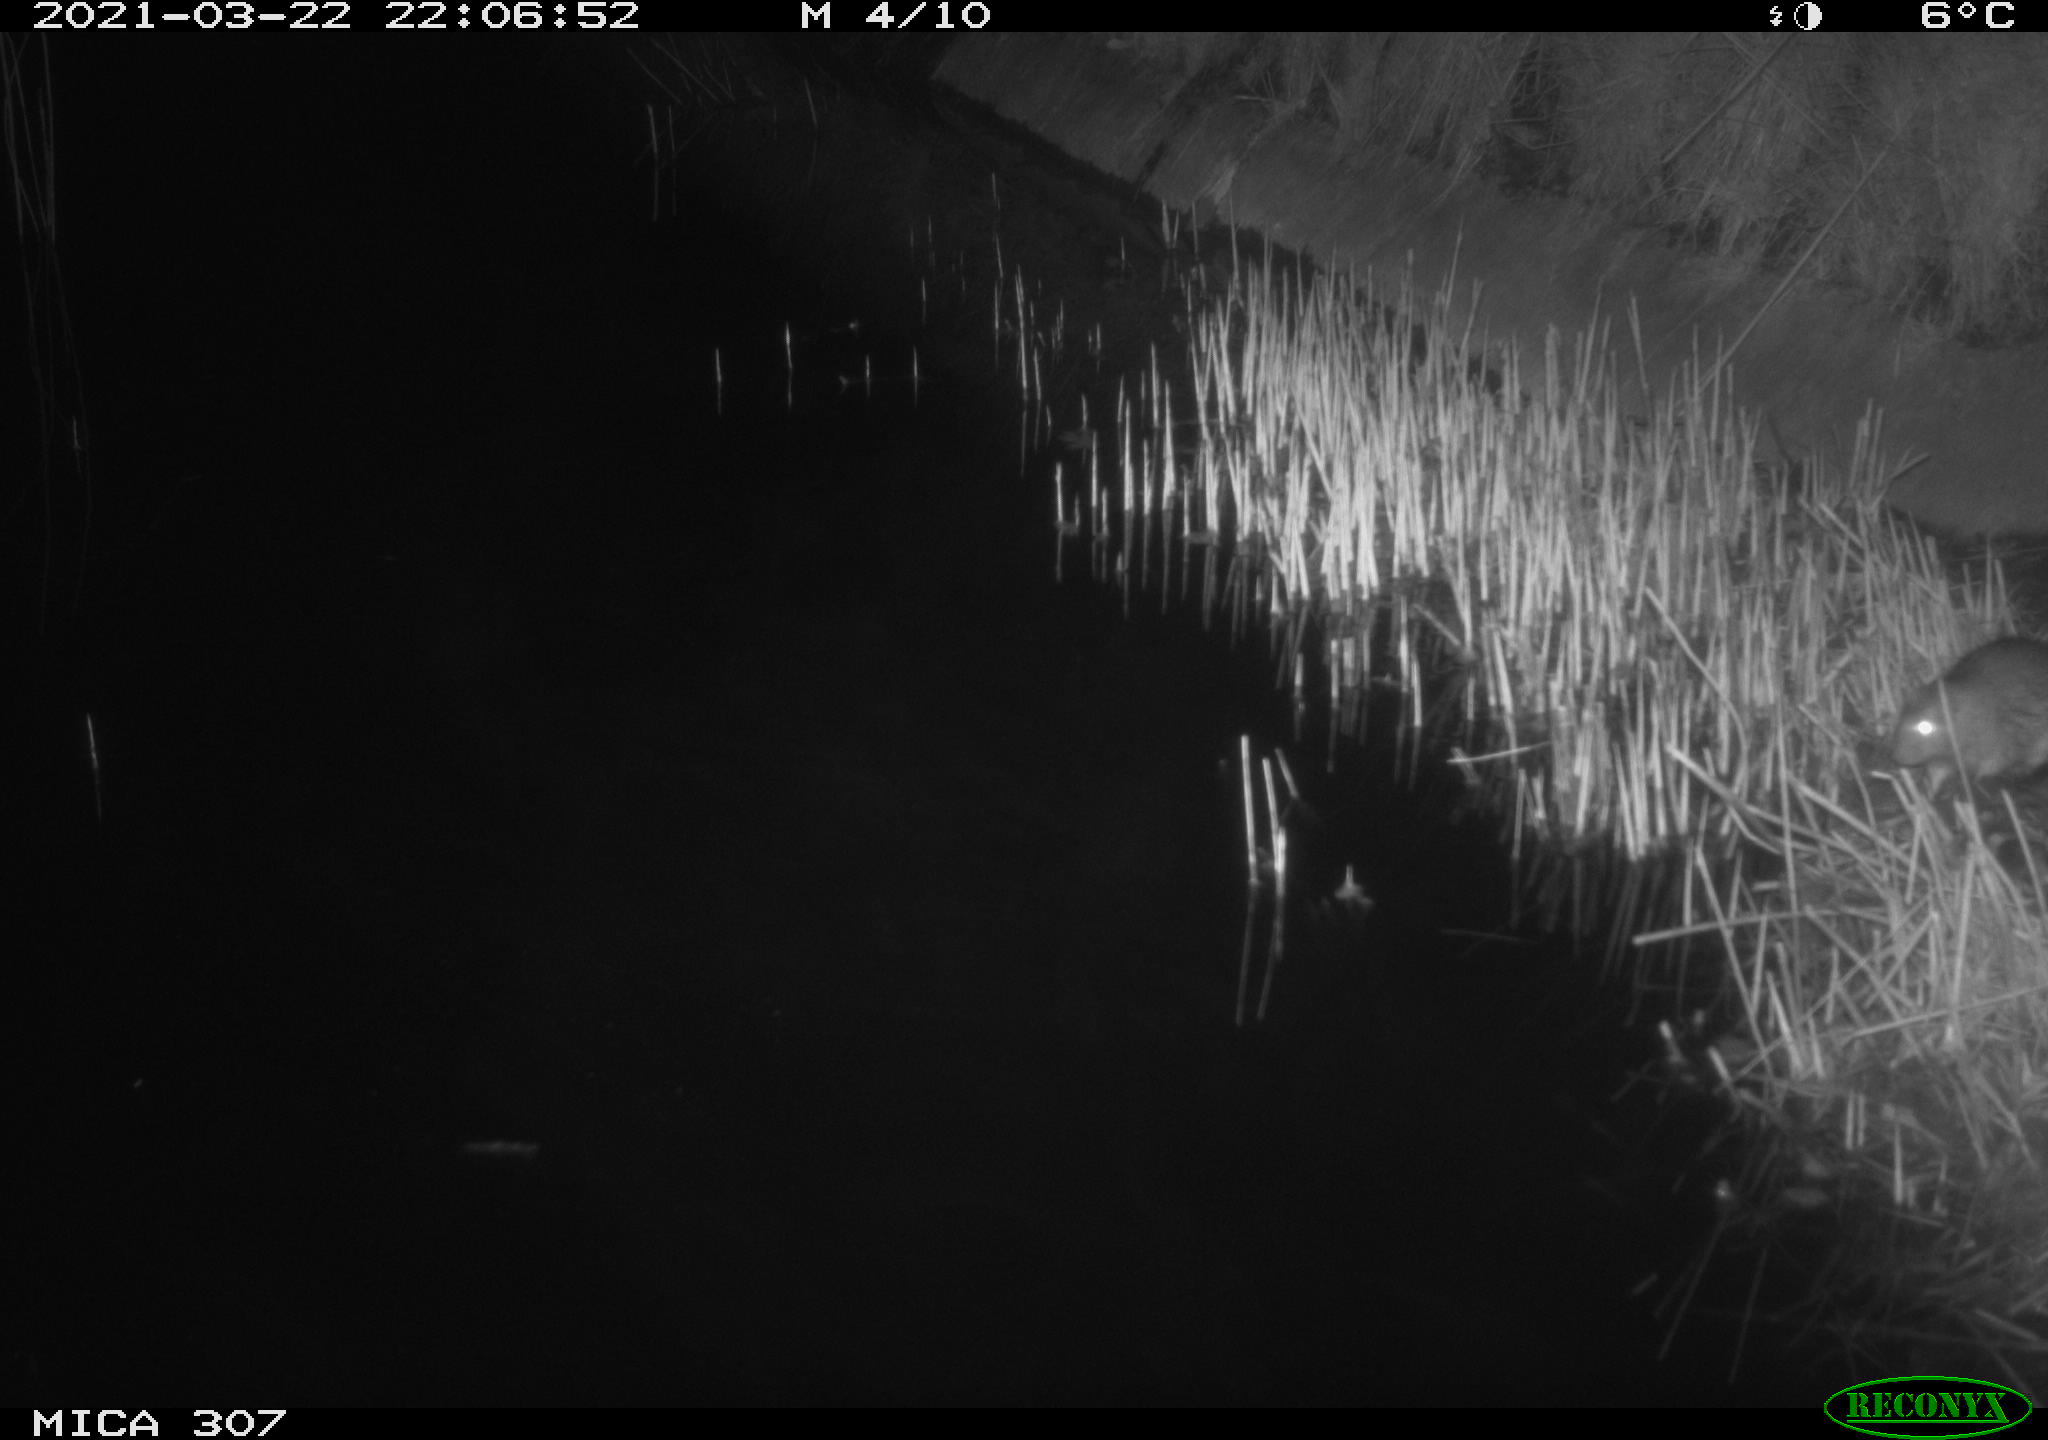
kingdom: Animalia
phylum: Chordata
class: Mammalia
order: Rodentia
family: Muridae
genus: Rattus
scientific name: Rattus norvegicus
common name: Brown rat
